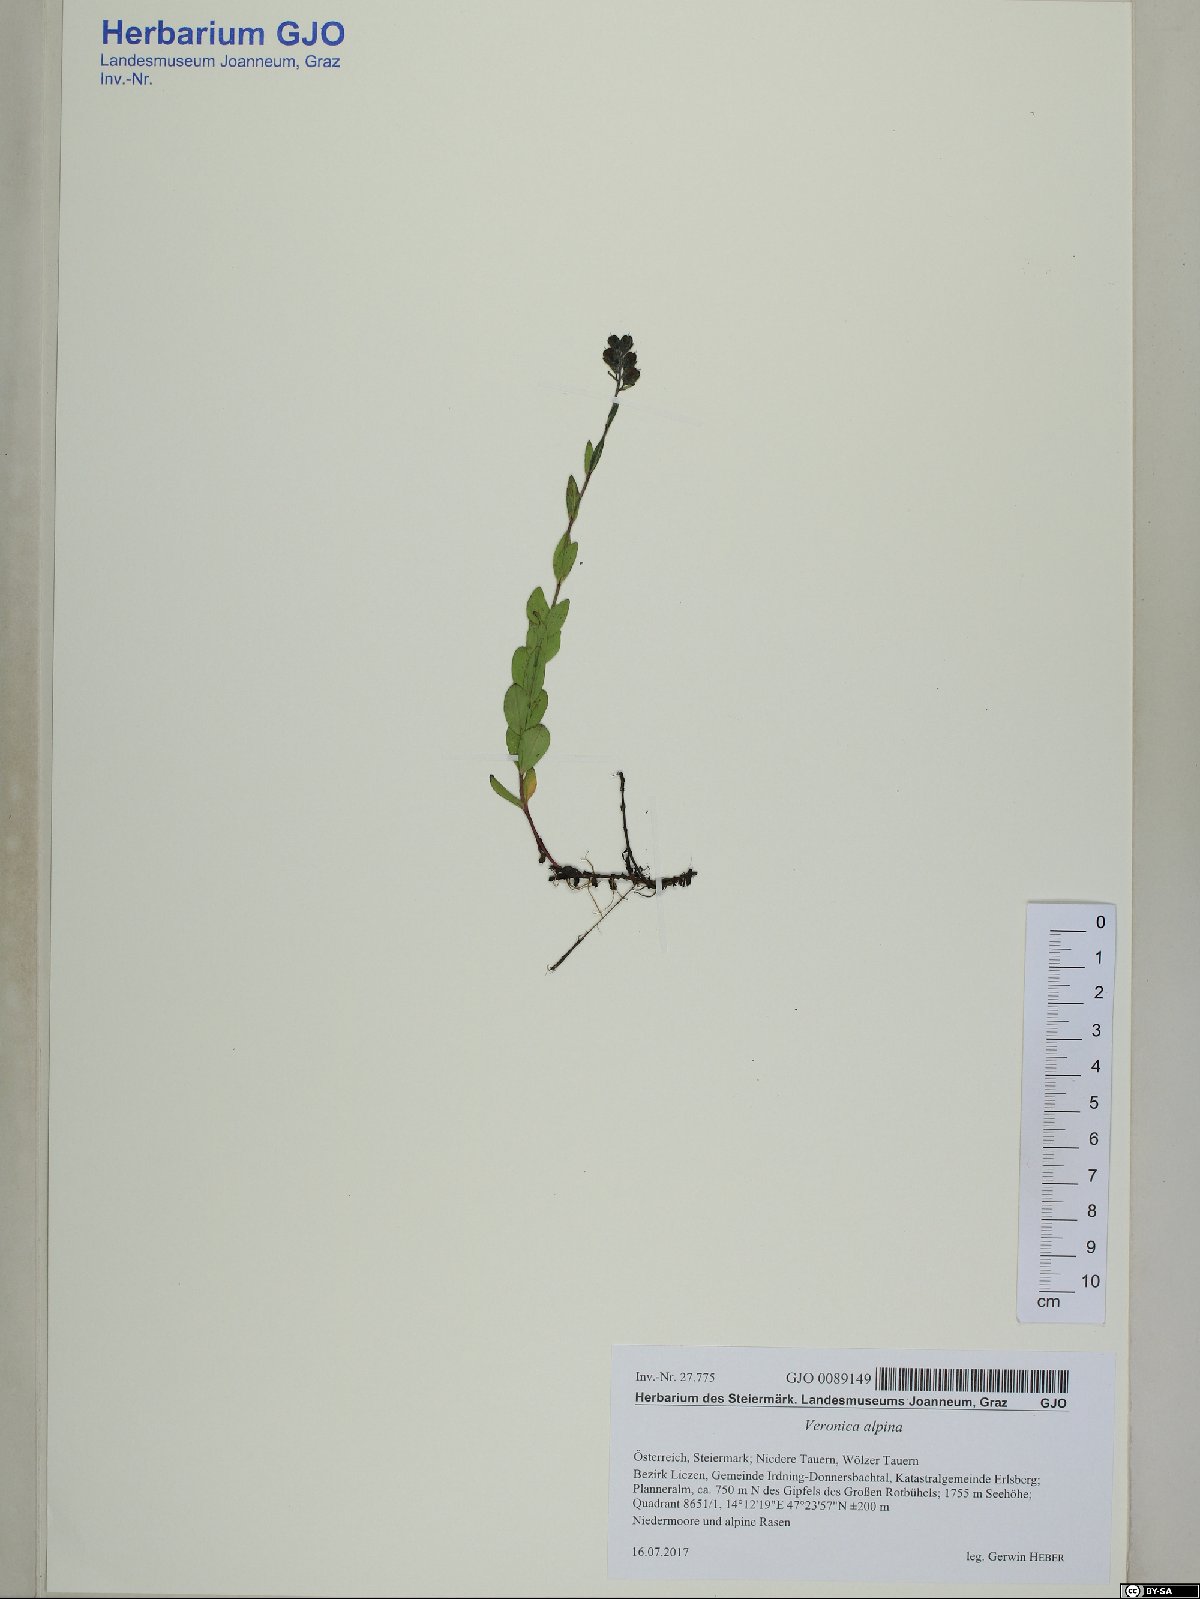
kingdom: Plantae
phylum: Tracheophyta
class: Magnoliopsida
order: Lamiales
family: Plantaginaceae
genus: Veronica
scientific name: Veronica alpina
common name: Alpine speedwell
